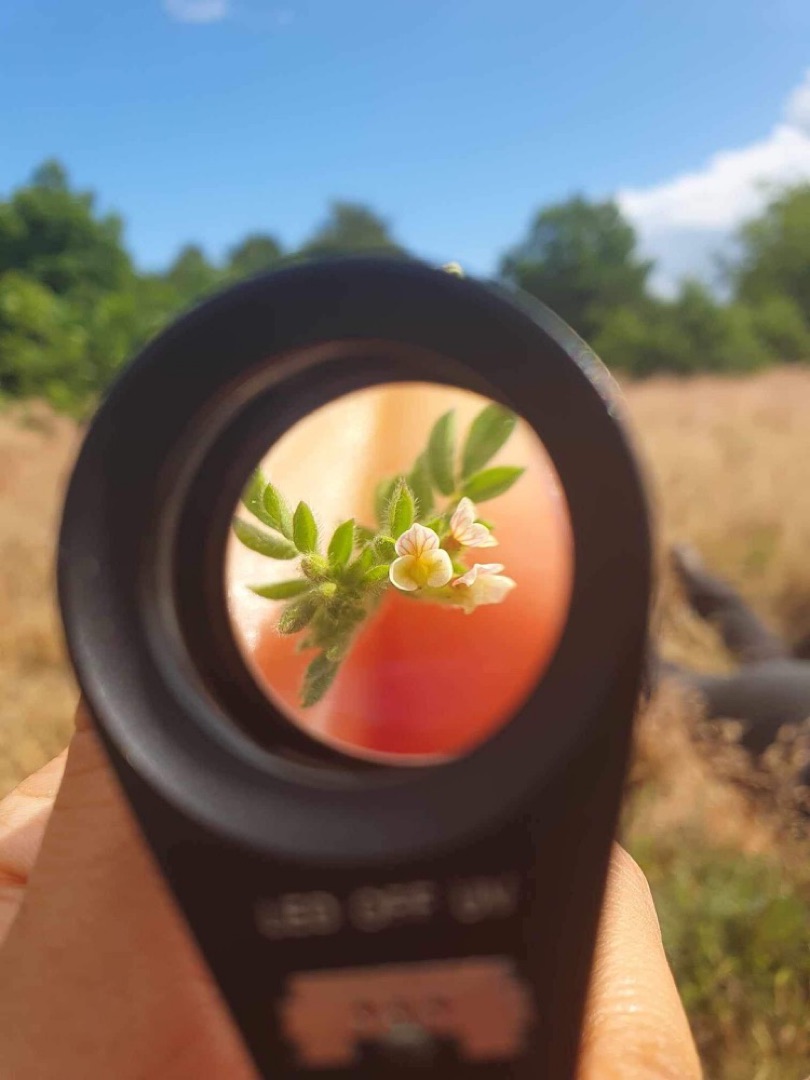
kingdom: Plantae
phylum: Tracheophyta
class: Magnoliopsida
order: Fabales
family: Fabaceae
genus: Ornithopus
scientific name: Ornithopus perpusillus
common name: Liden fugleklo
